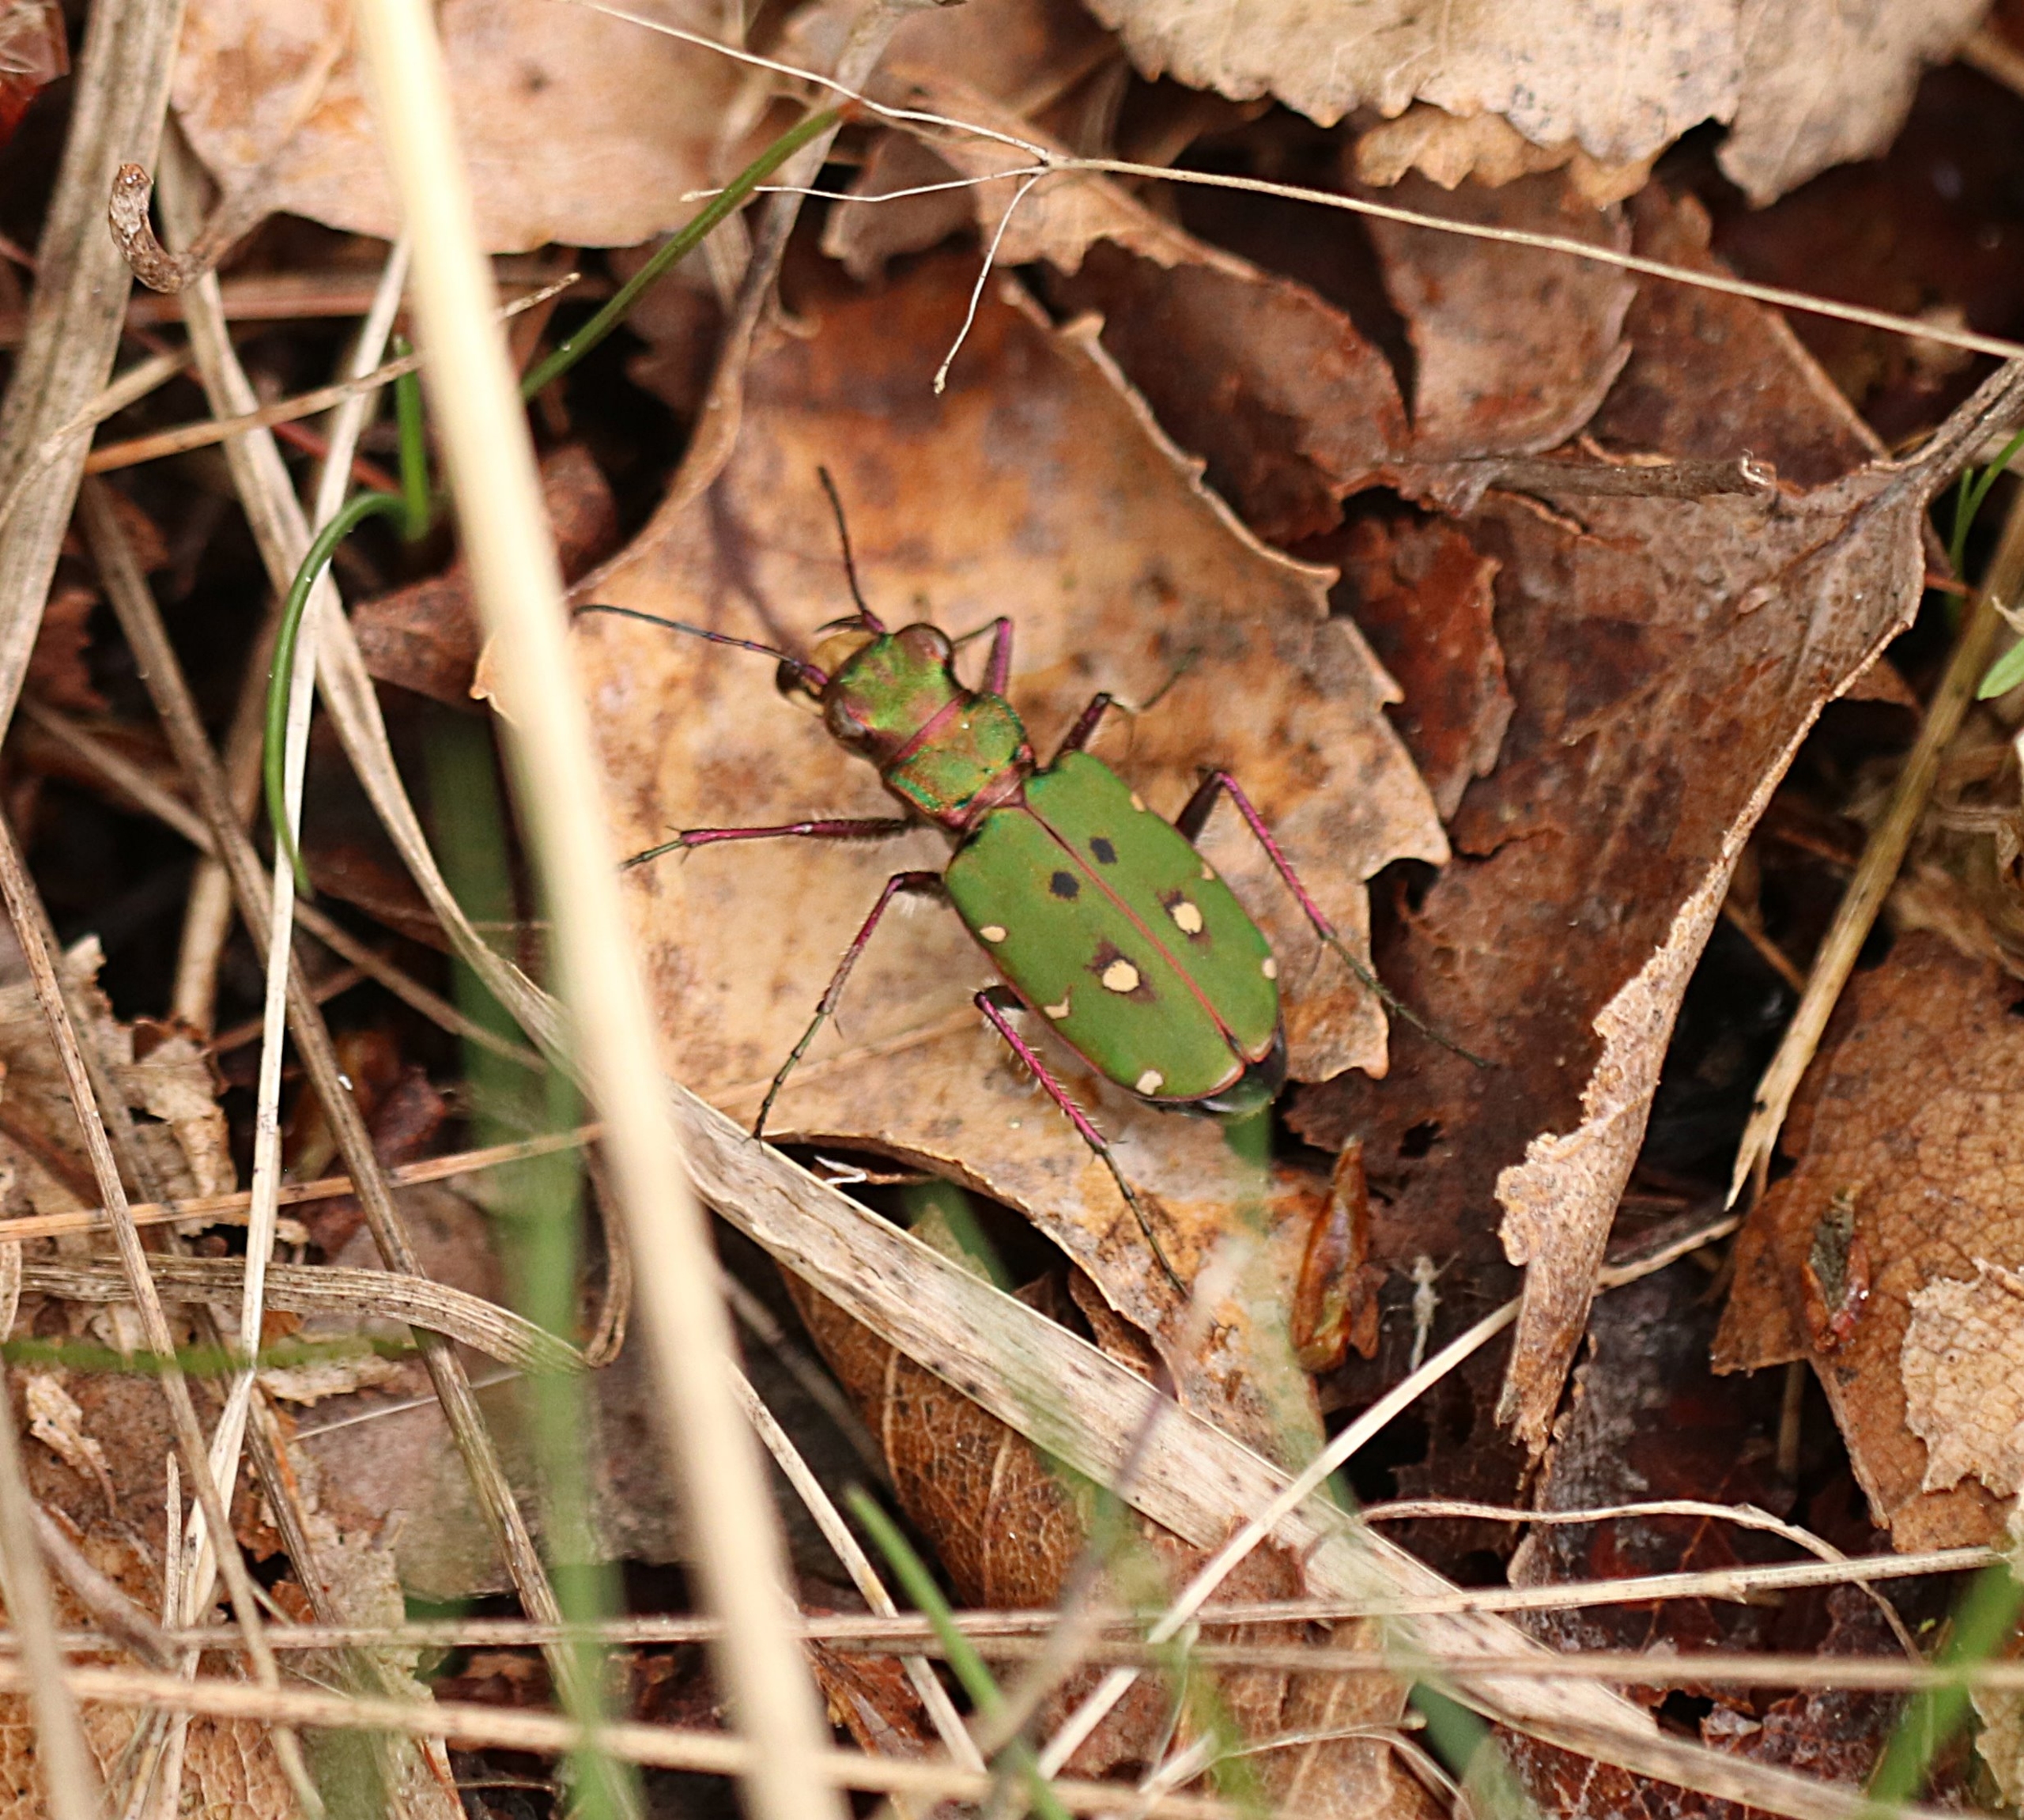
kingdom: Animalia
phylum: Arthropoda
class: Insecta
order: Coleoptera
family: Carabidae
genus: Cicindela
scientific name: Cicindela campestris
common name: Grøn sandspringer
